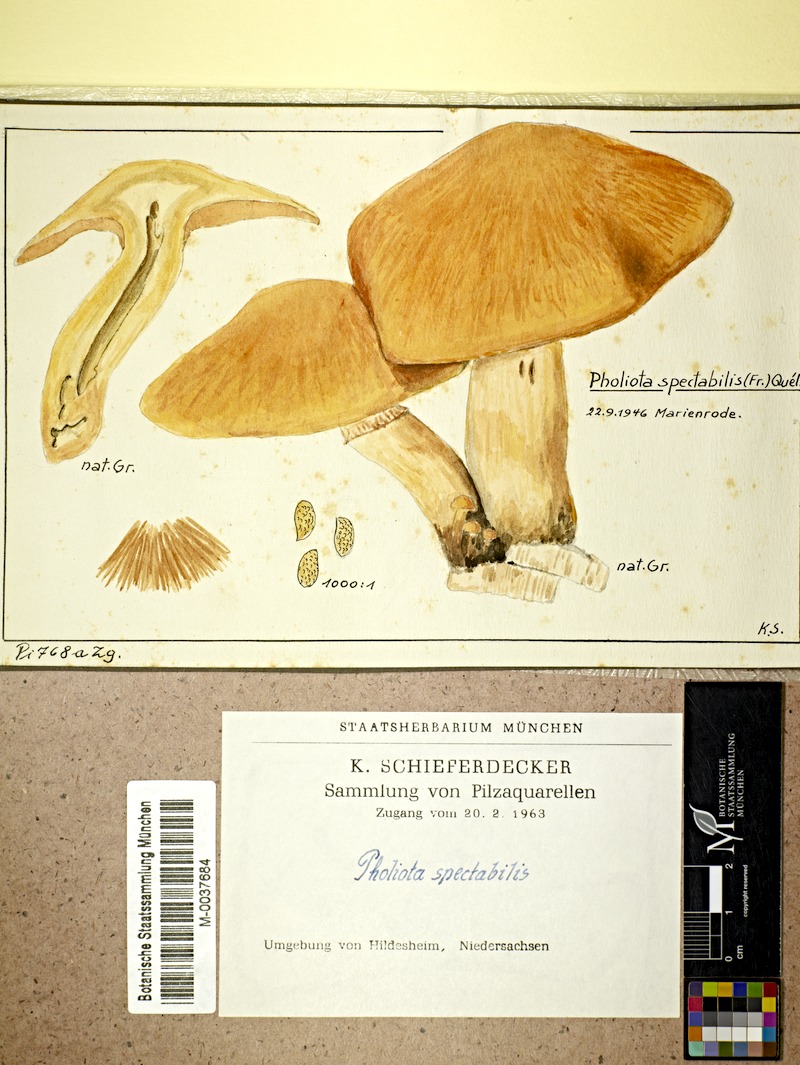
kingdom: Fungi
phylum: Basidiomycota
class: Agaricomycetes
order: Agaricales
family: Hymenogastraceae
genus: Gymnopilus
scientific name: Gymnopilus spectabilis
